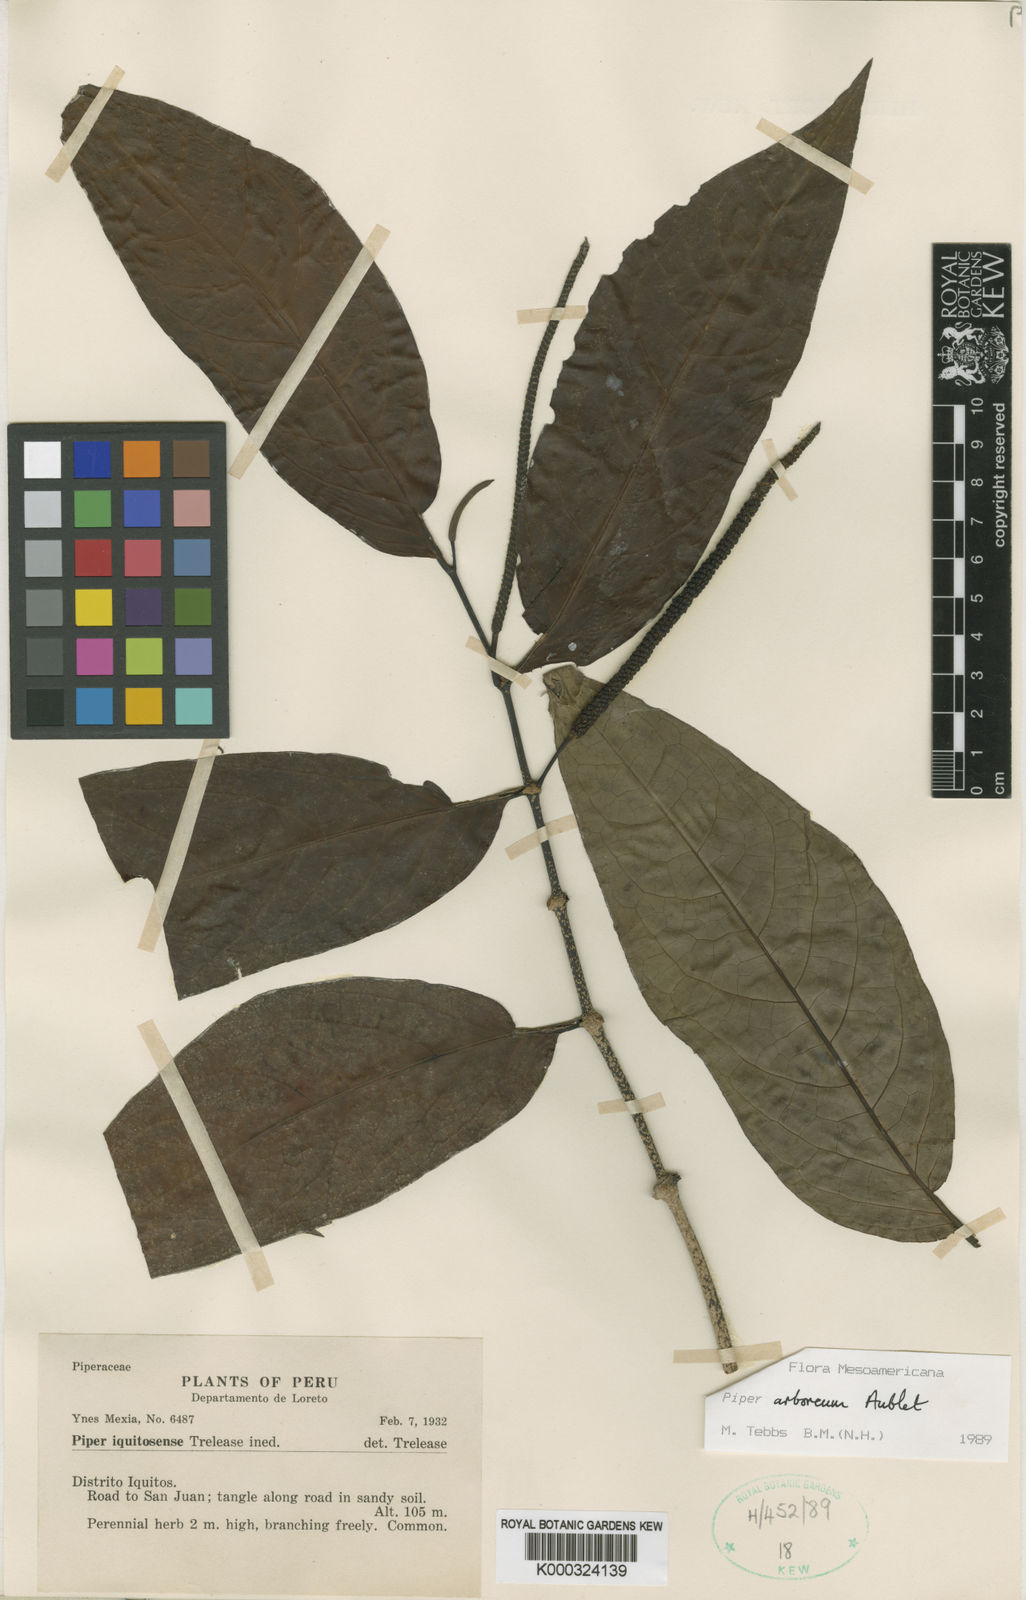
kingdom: Plantae
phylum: Tracheophyta
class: Magnoliopsida
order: Piperales
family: Piperaceae
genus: Piper
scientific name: Piper arboreum
